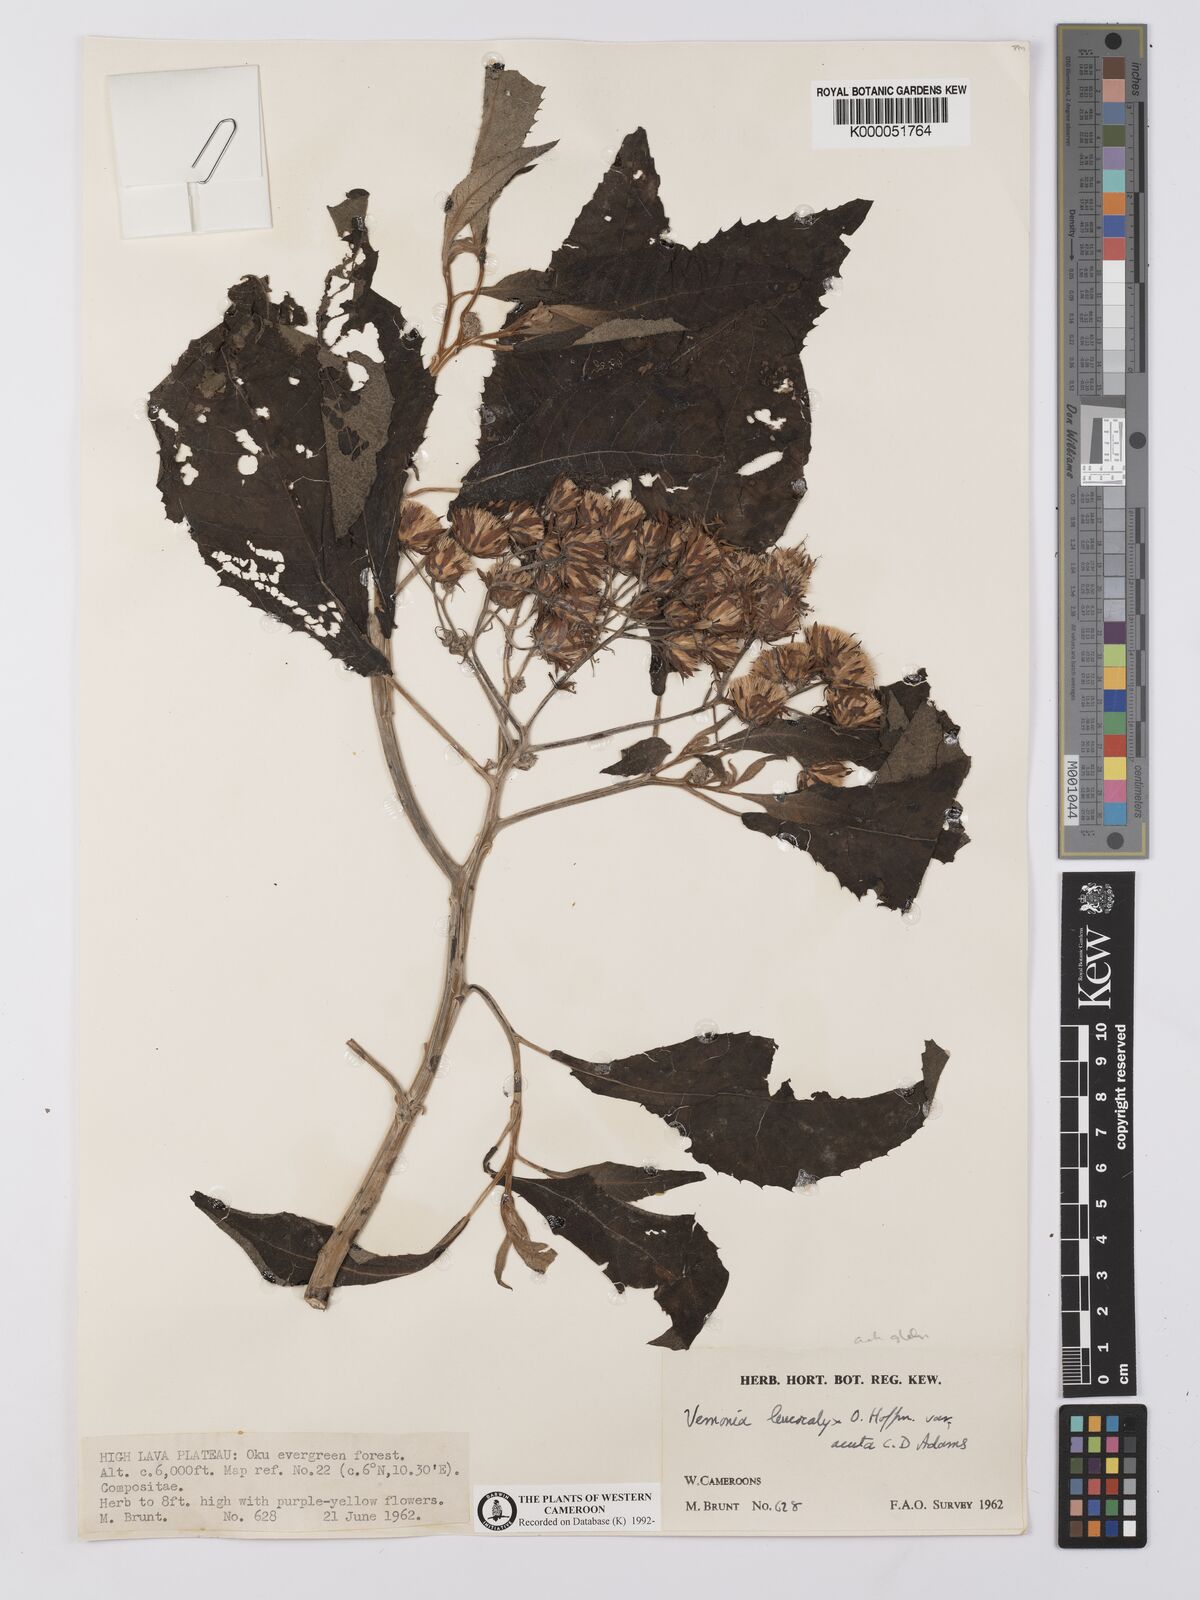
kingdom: Plantae
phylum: Tracheophyta
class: Magnoliopsida
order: Asterales
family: Asteraceae
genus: Baccharoides
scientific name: Baccharoides calvoana
